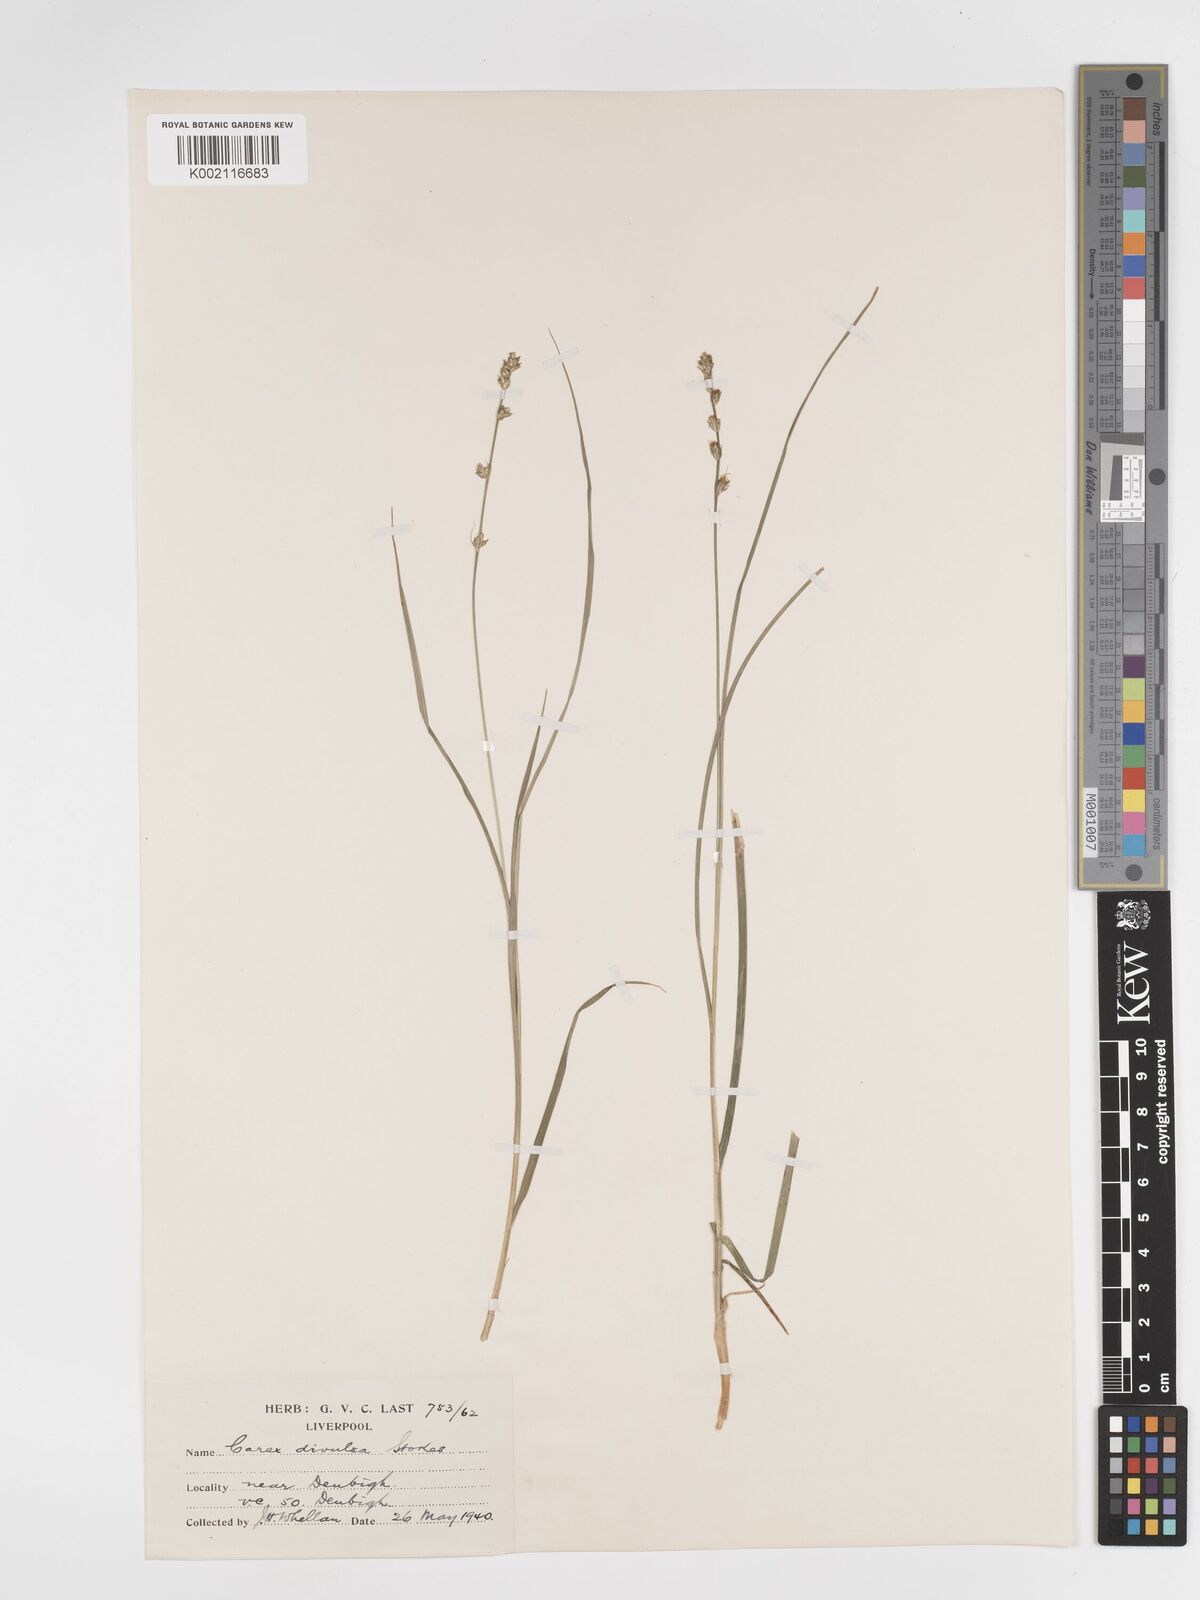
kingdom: Plantae
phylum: Tracheophyta
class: Liliopsida
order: Poales
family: Cyperaceae
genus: Carex
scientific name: Carex divulsa
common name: Grassland sedge
